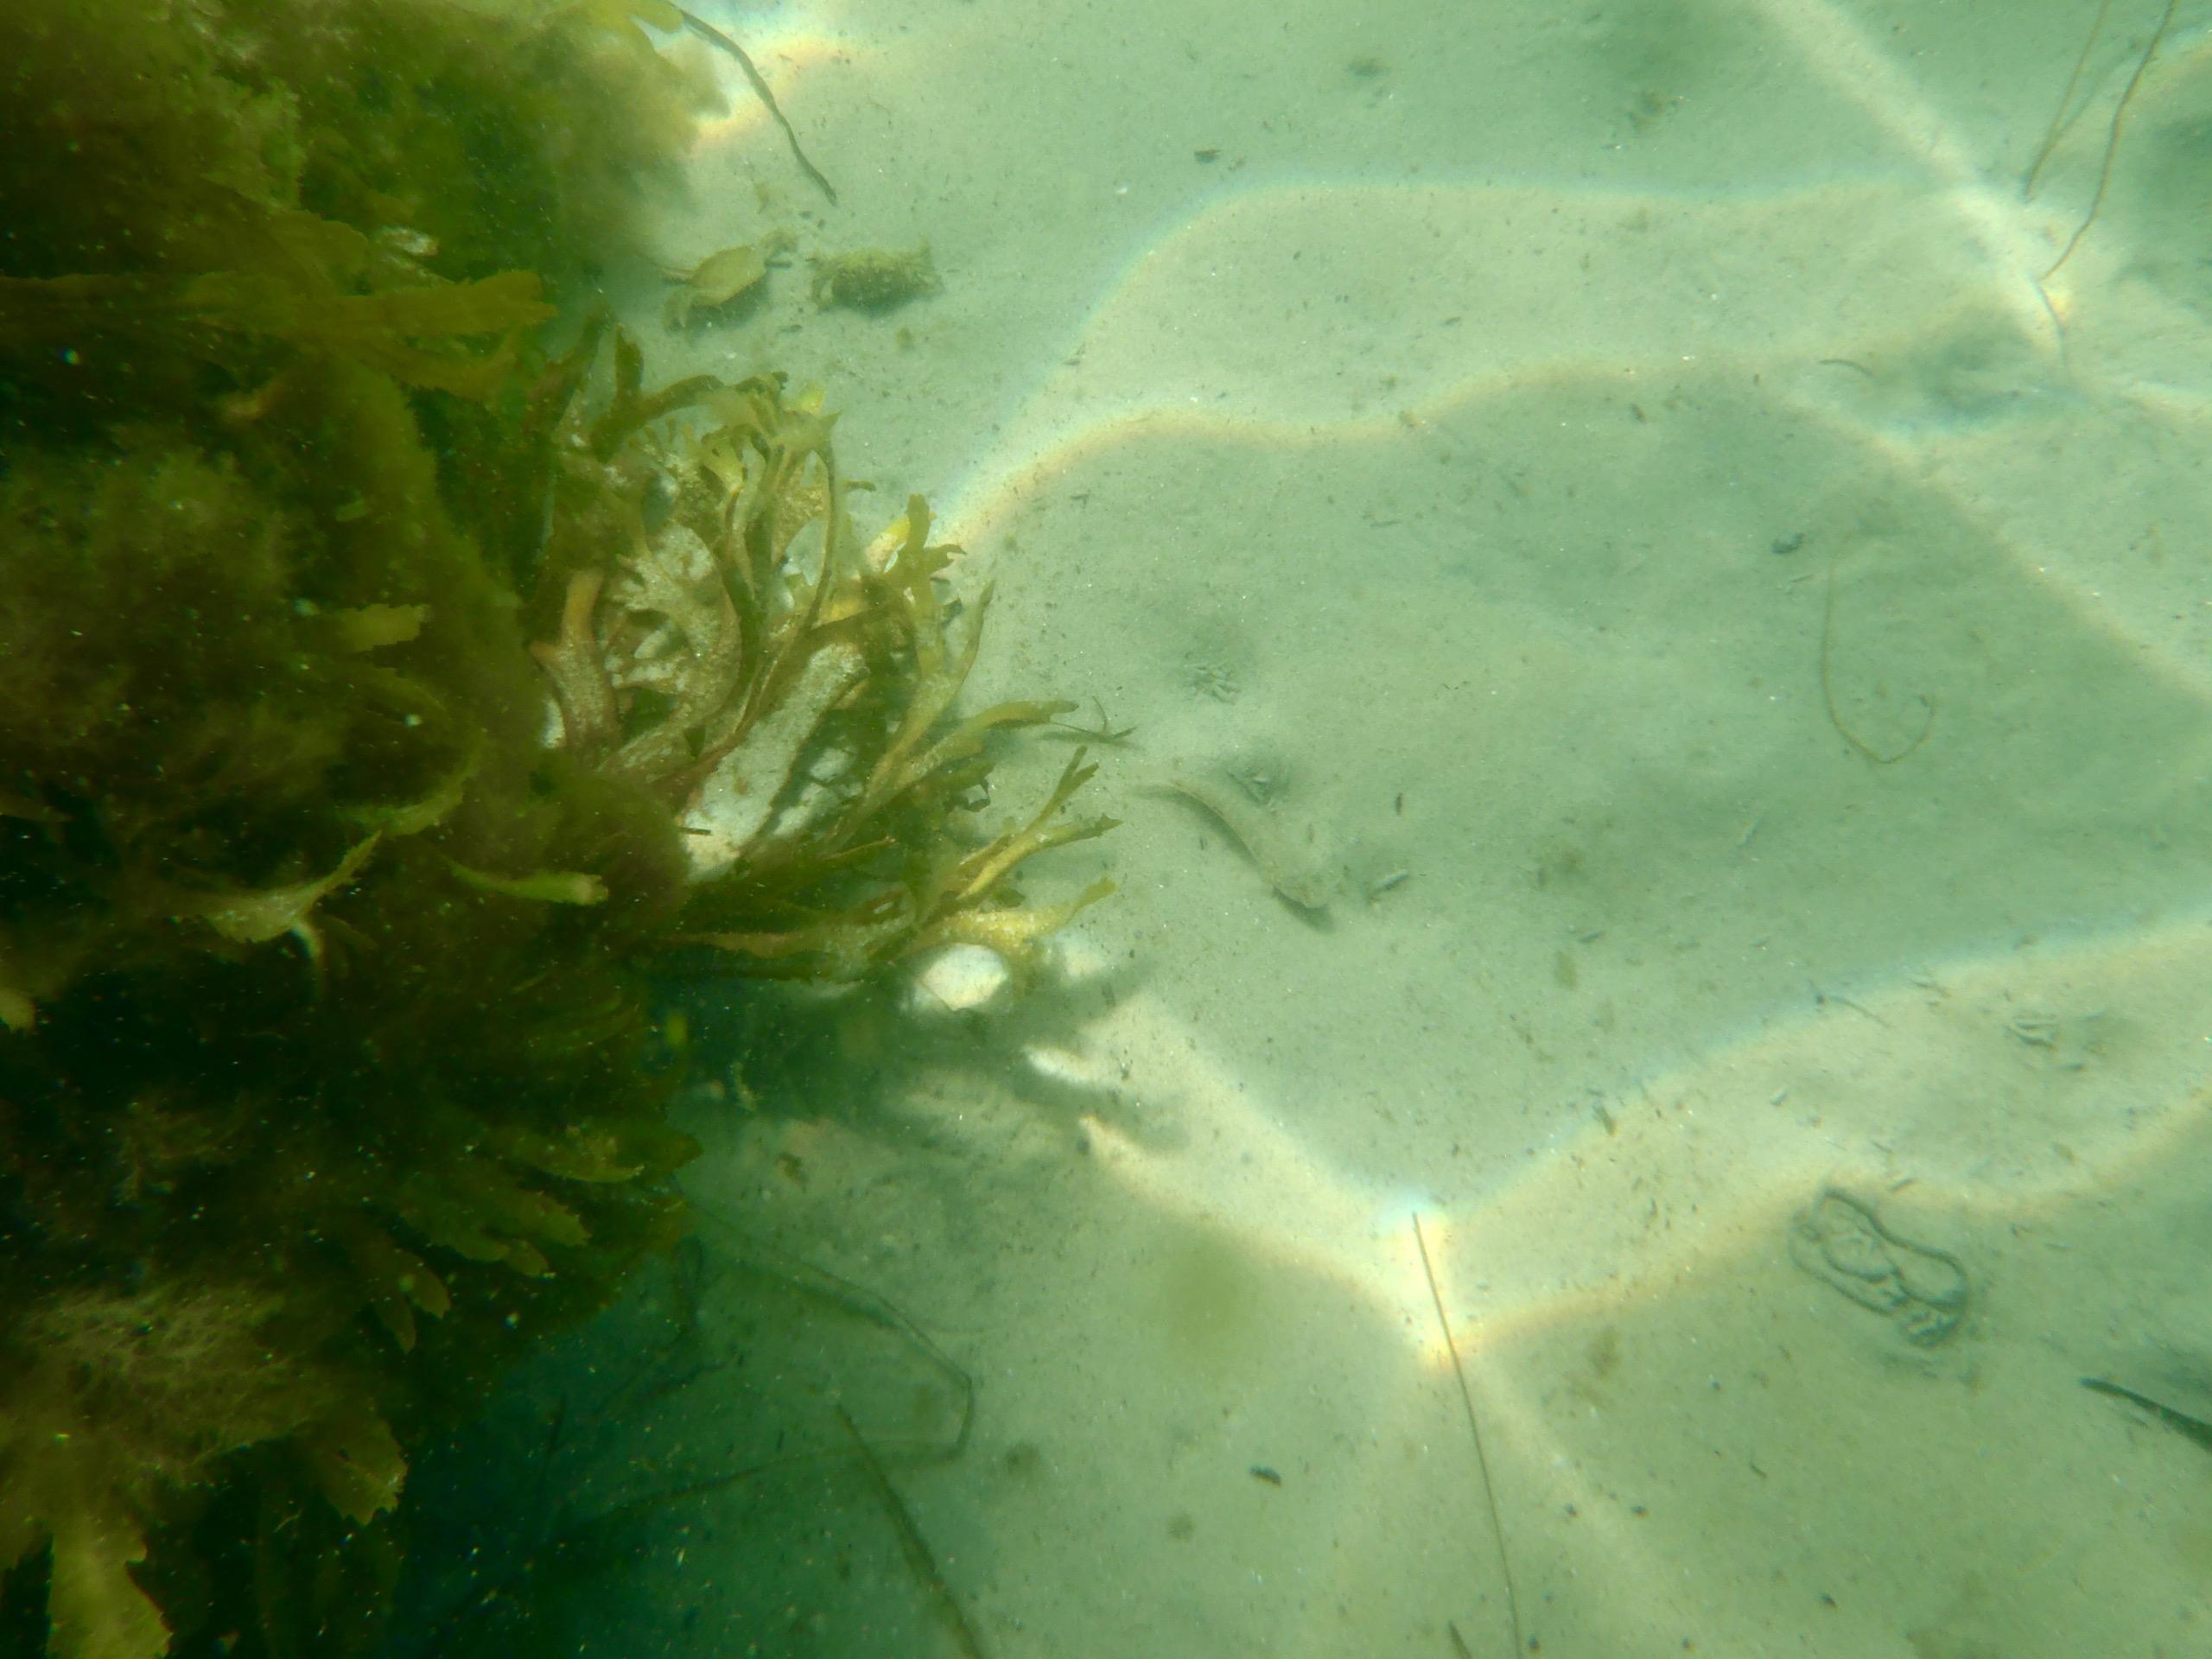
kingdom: Animalia
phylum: Chordata
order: Perciformes
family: Gobiidae
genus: Gobius
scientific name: Gobius niger
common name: Sortkutling
